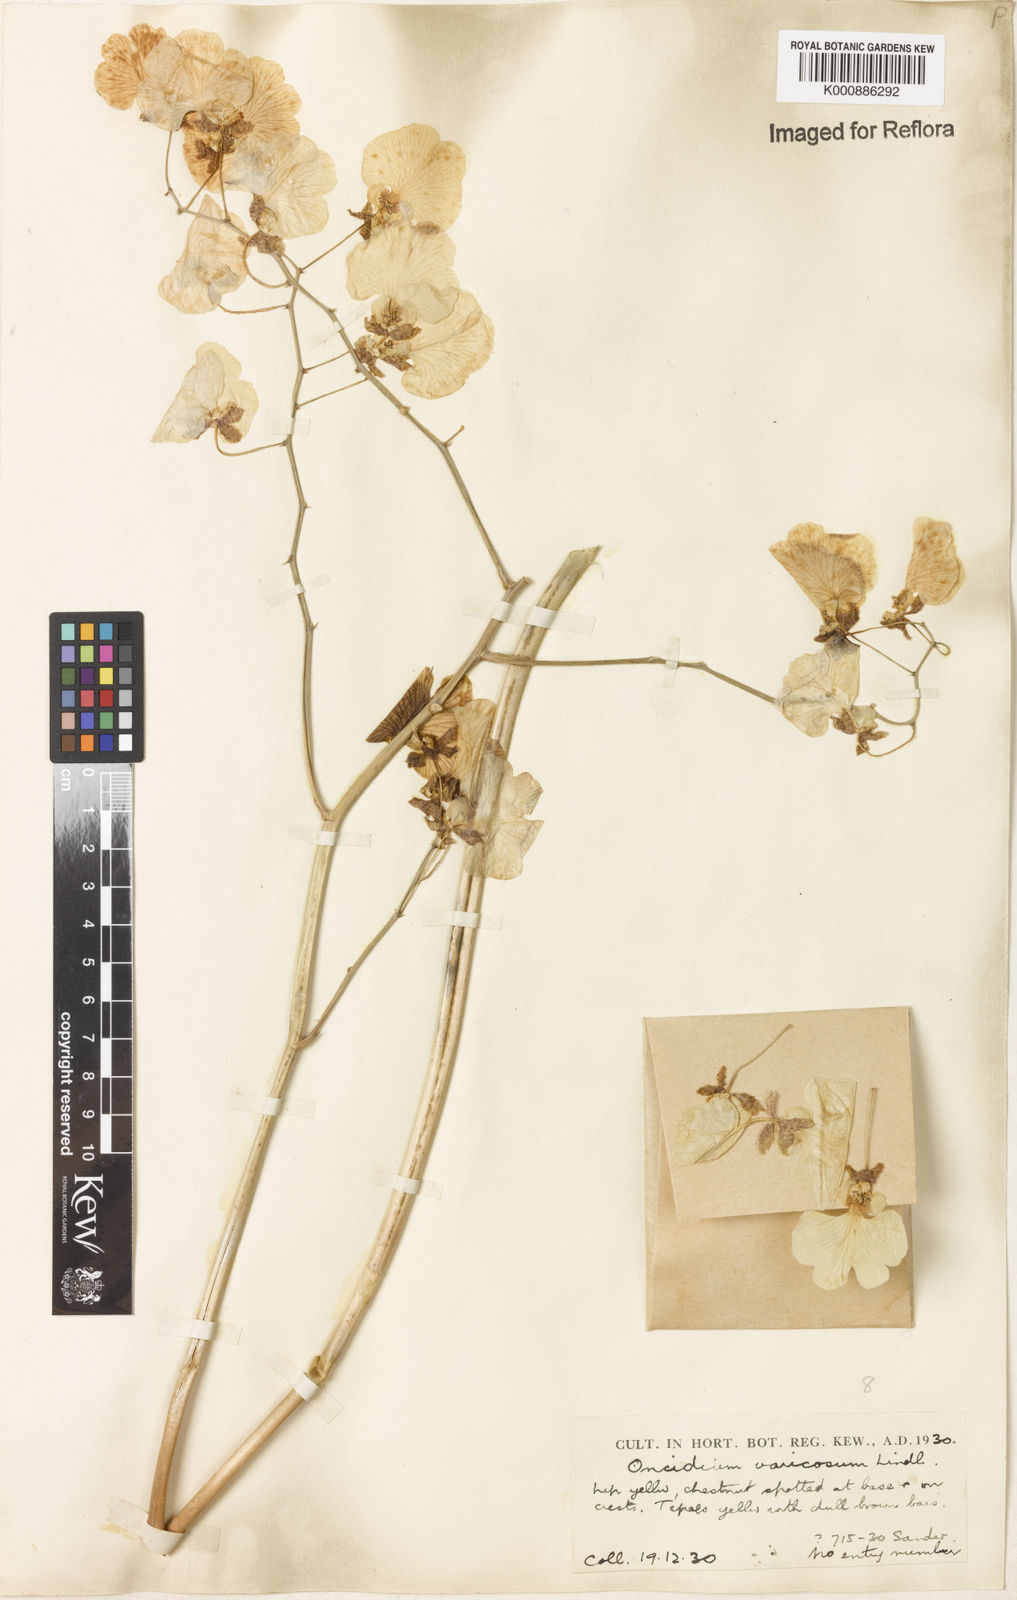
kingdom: Plantae
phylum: Tracheophyta
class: Liliopsida
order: Asparagales
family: Orchidaceae
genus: Gomesa
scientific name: Gomesa varicosa
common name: Dancing ladies
